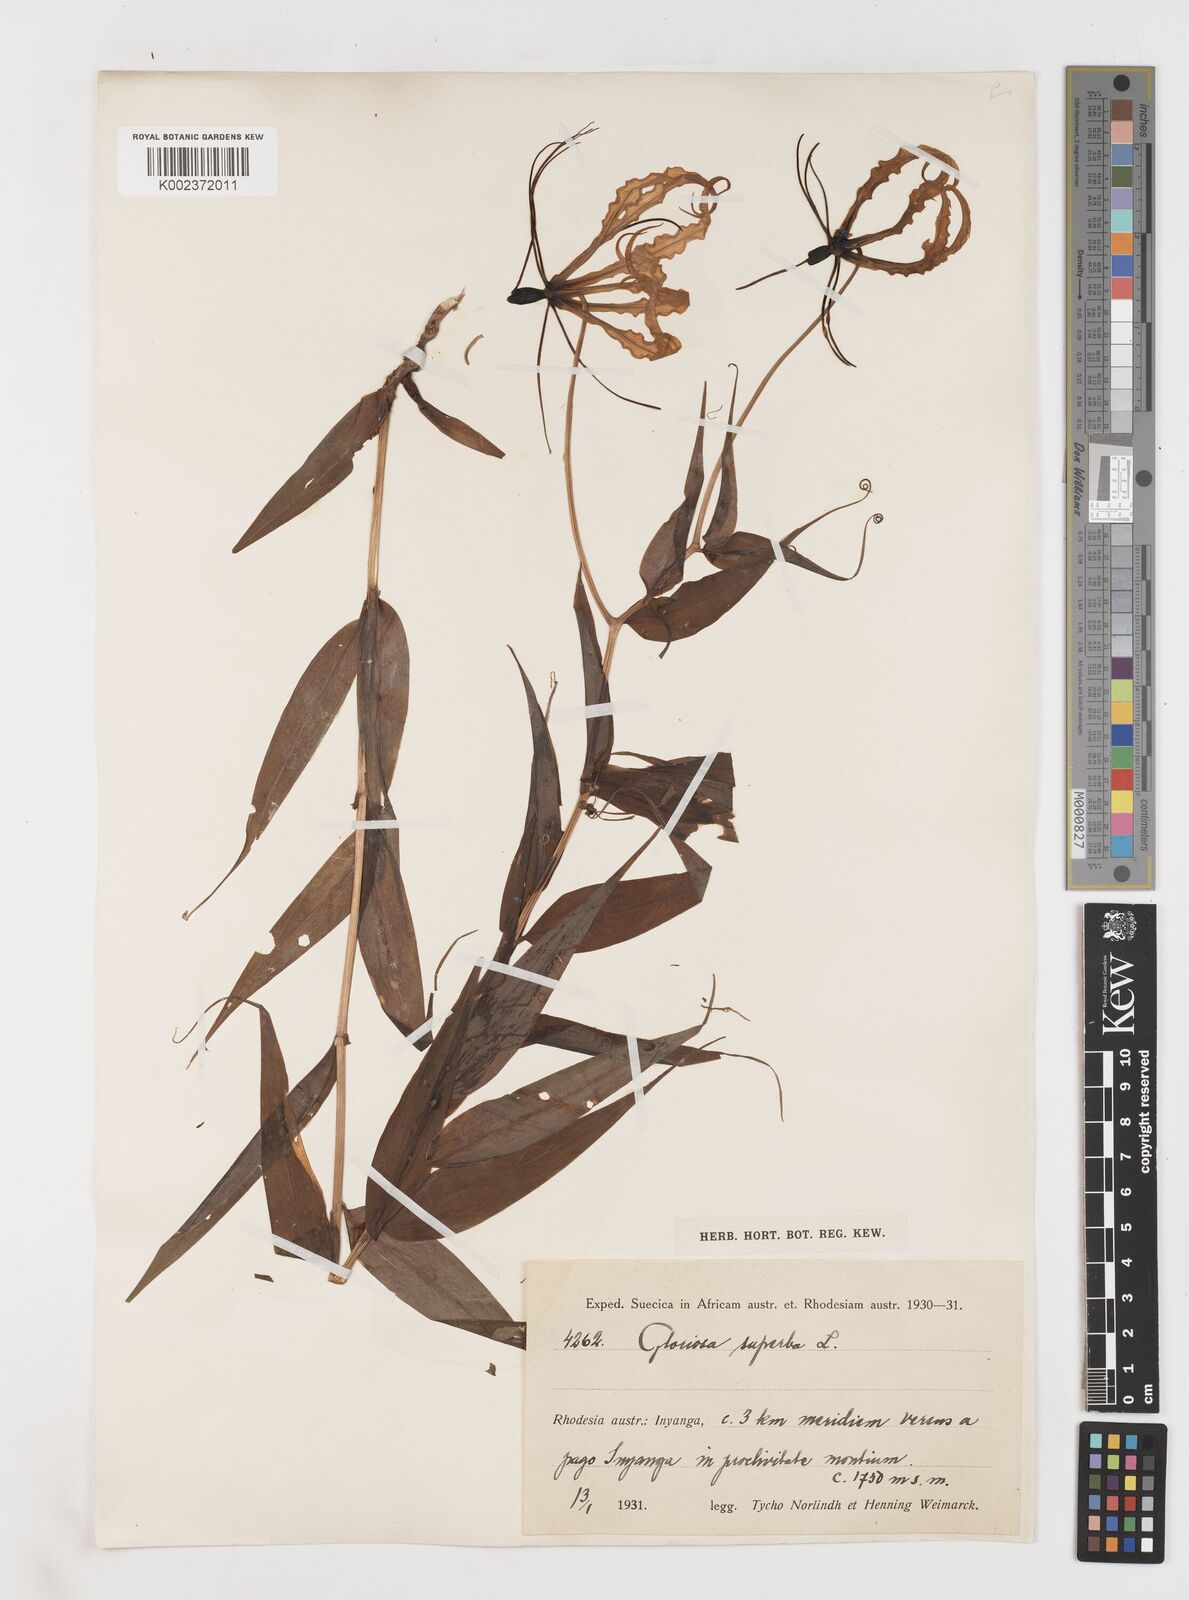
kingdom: Plantae
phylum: Tracheophyta
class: Liliopsida
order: Liliales
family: Colchicaceae
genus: Gloriosa
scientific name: Gloriosa superba
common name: Flame lily
